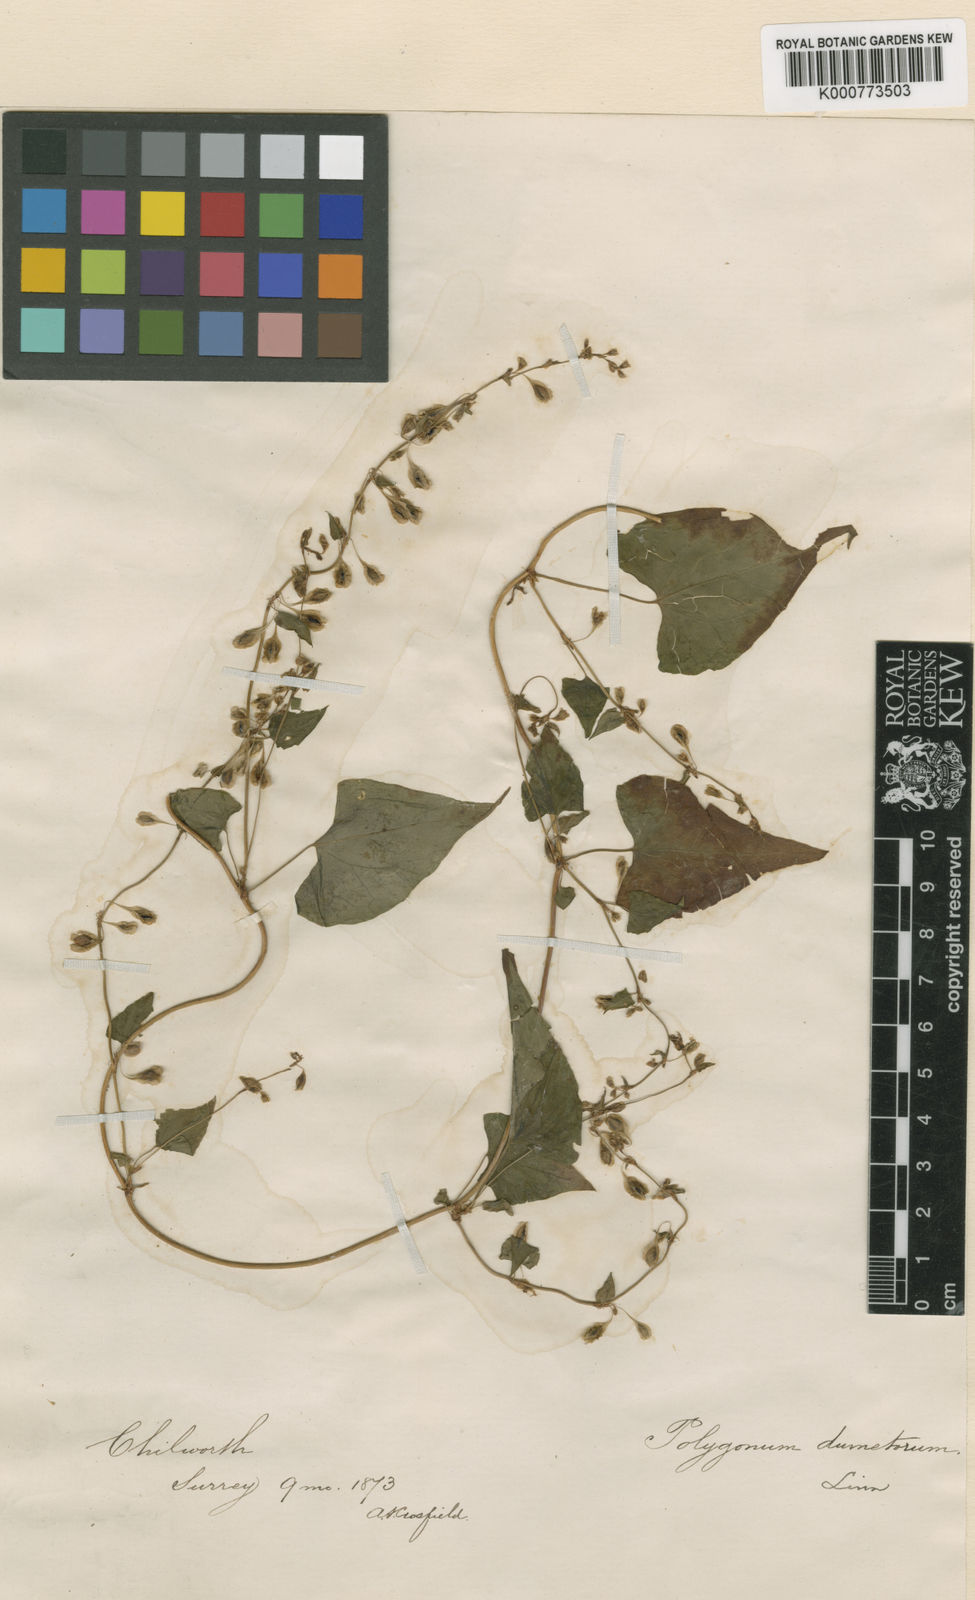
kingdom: Plantae
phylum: Tracheophyta
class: Magnoliopsida
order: Caryophyllales
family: Polygonaceae
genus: Fallopia
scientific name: Fallopia dumetorum
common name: Copse-bindweed
